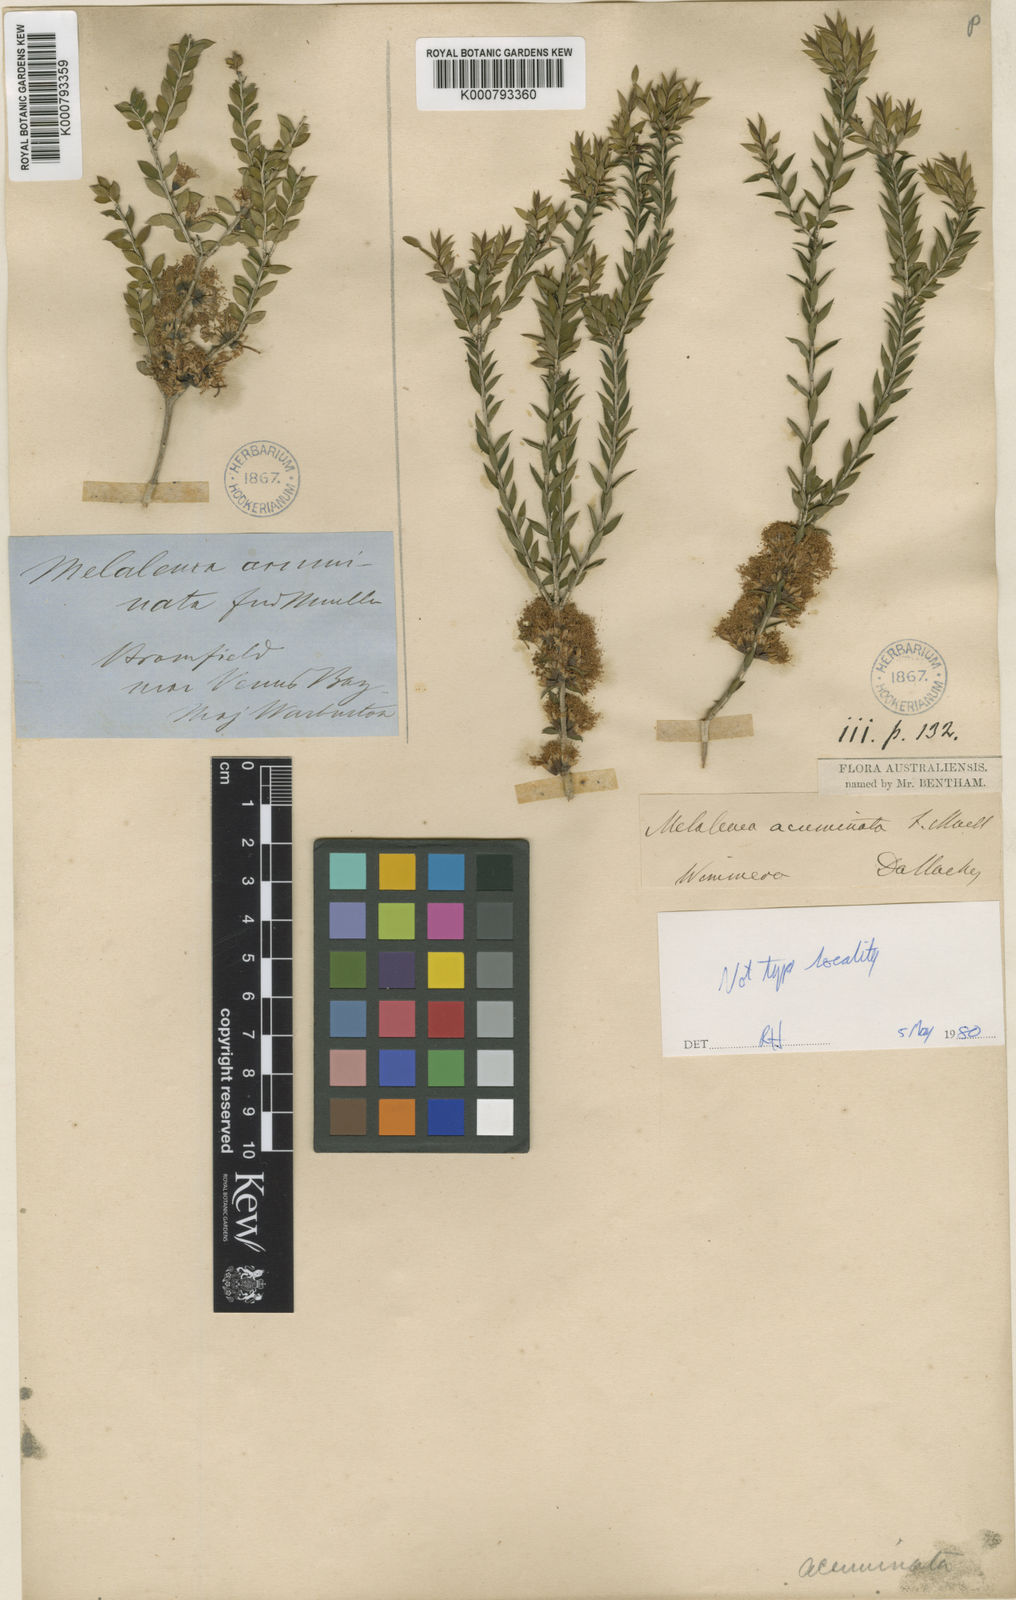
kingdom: Plantae
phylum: Tracheophyta
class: Magnoliopsida
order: Myrtales
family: Myrtaceae
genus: Melaleuca
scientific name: Melaleuca acuminata
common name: Mallee honey myrtle
